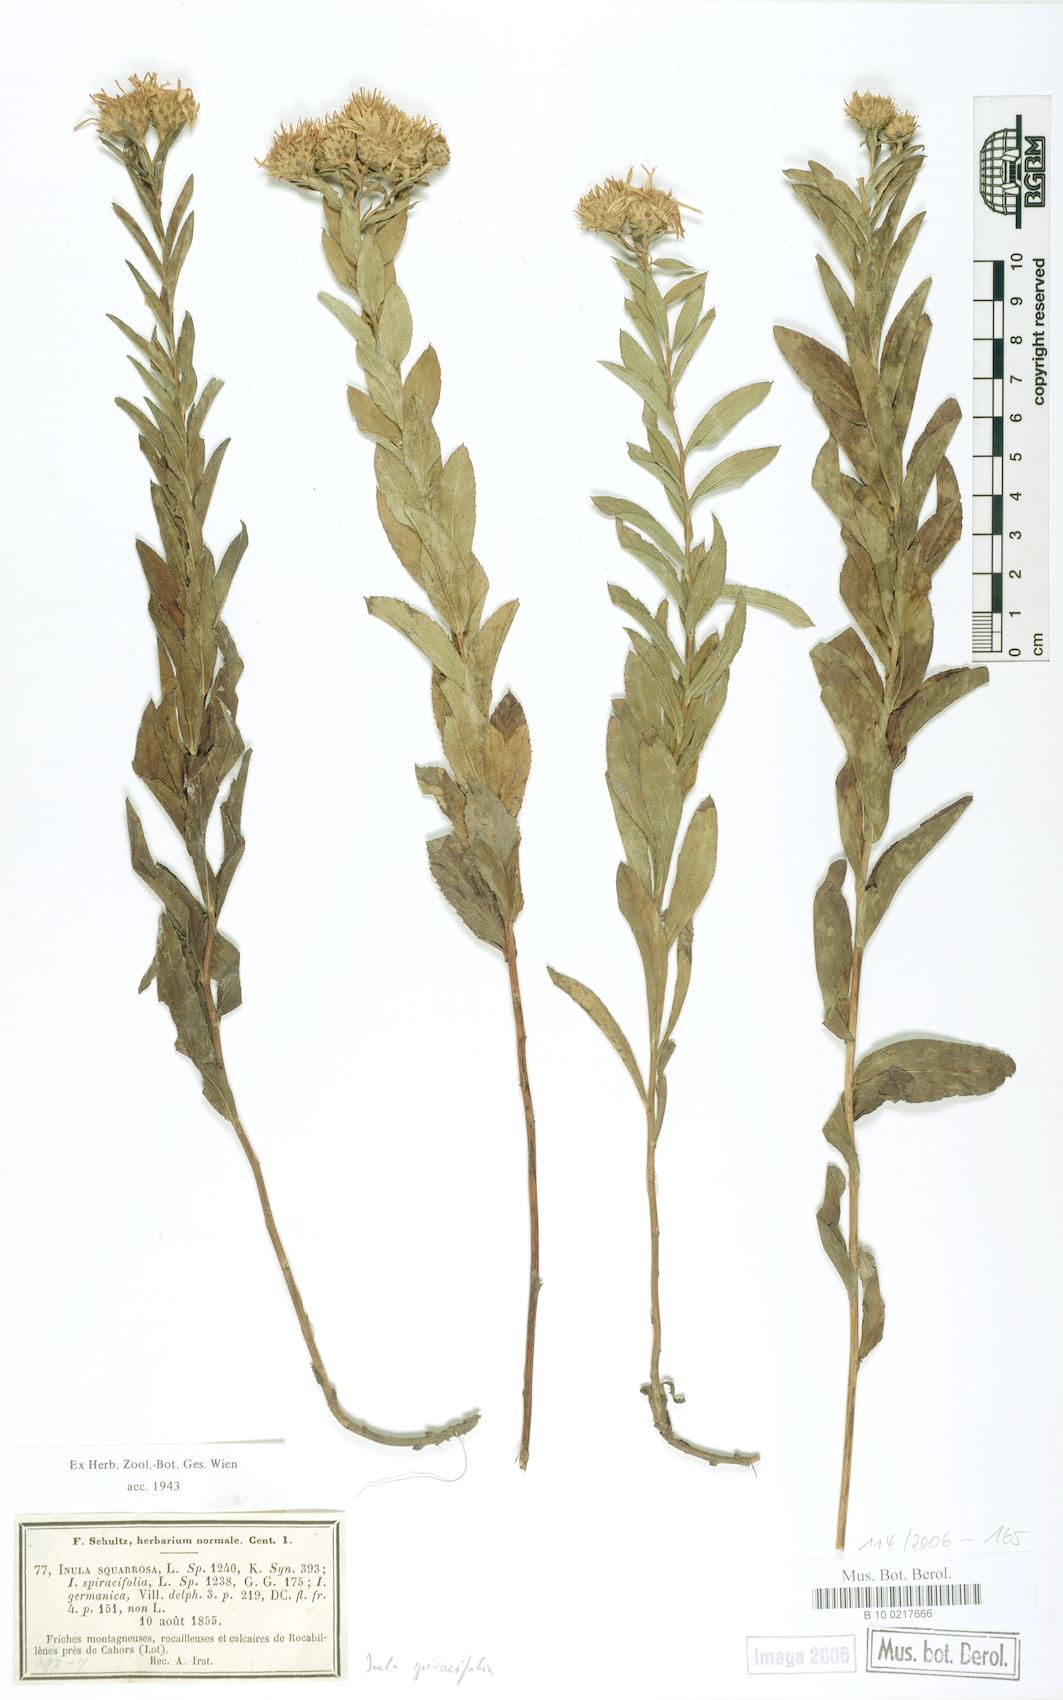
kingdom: Plantae
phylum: Tracheophyta
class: Magnoliopsida
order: Asterales
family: Asteraceae
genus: Pentanema
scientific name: Pentanema spiraeifolium
